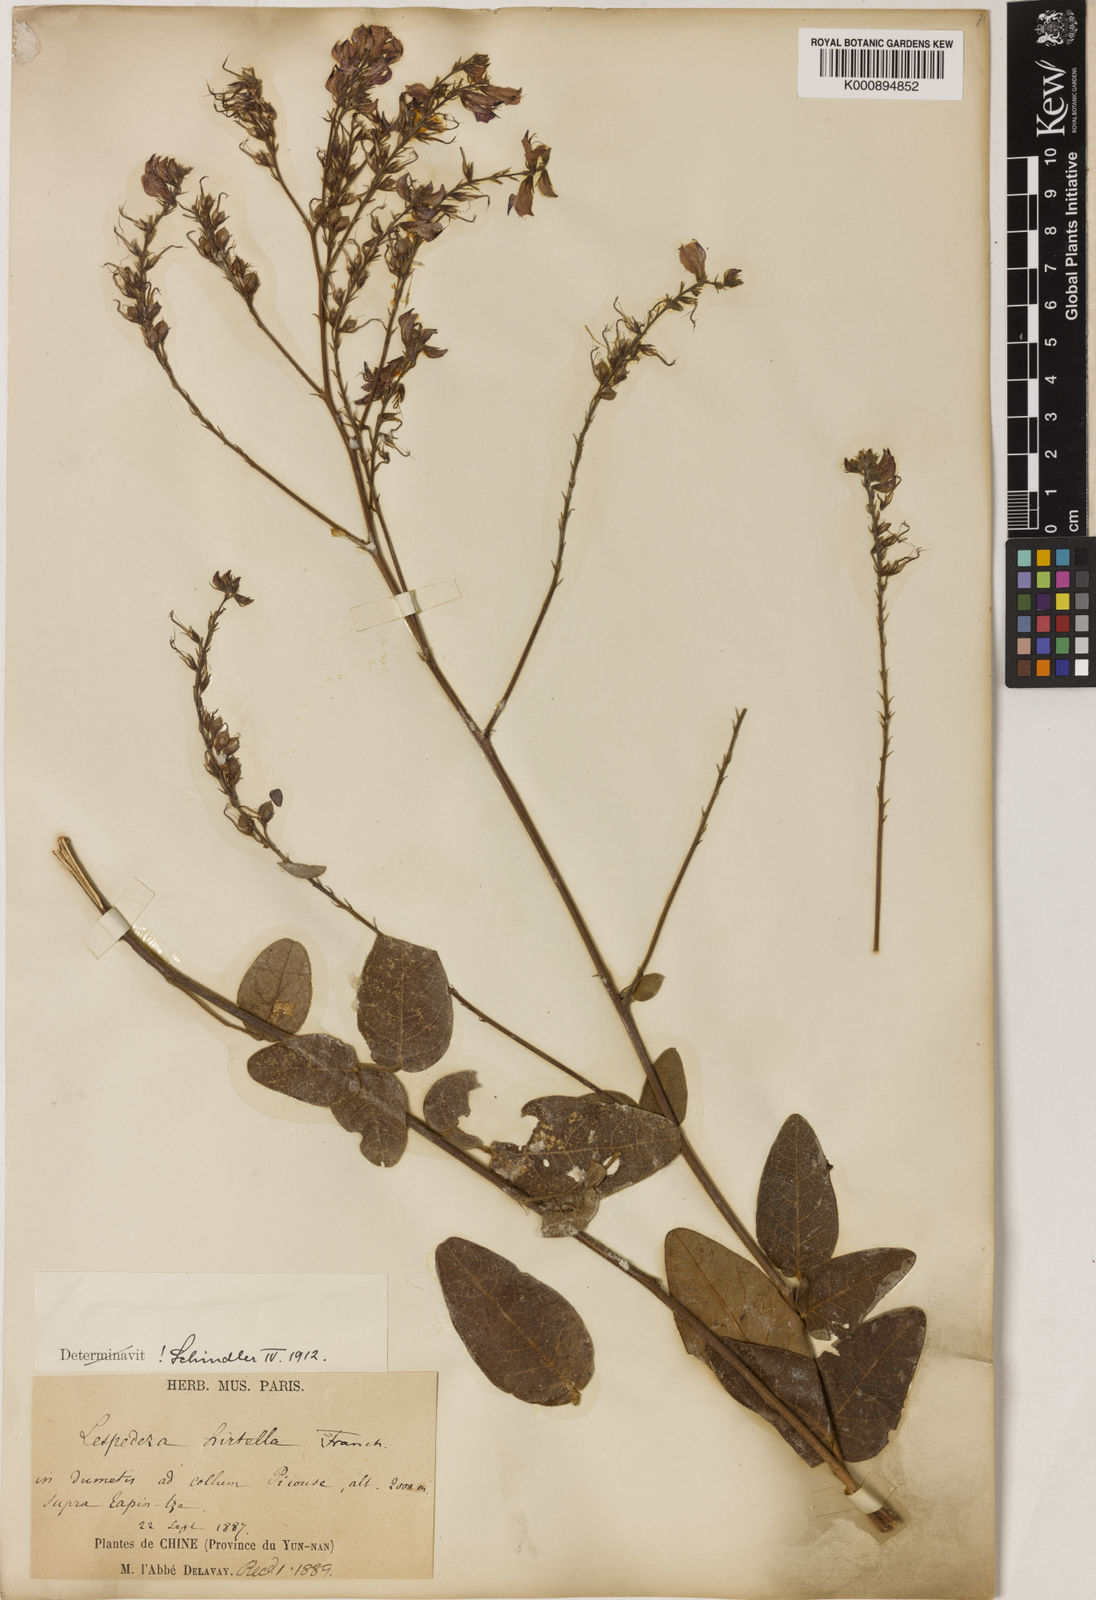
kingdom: Plantae
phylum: Tracheophyta
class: Magnoliopsida
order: Fabales
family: Fabaceae
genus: Campylotropis
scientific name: Campylotropis hirtella
